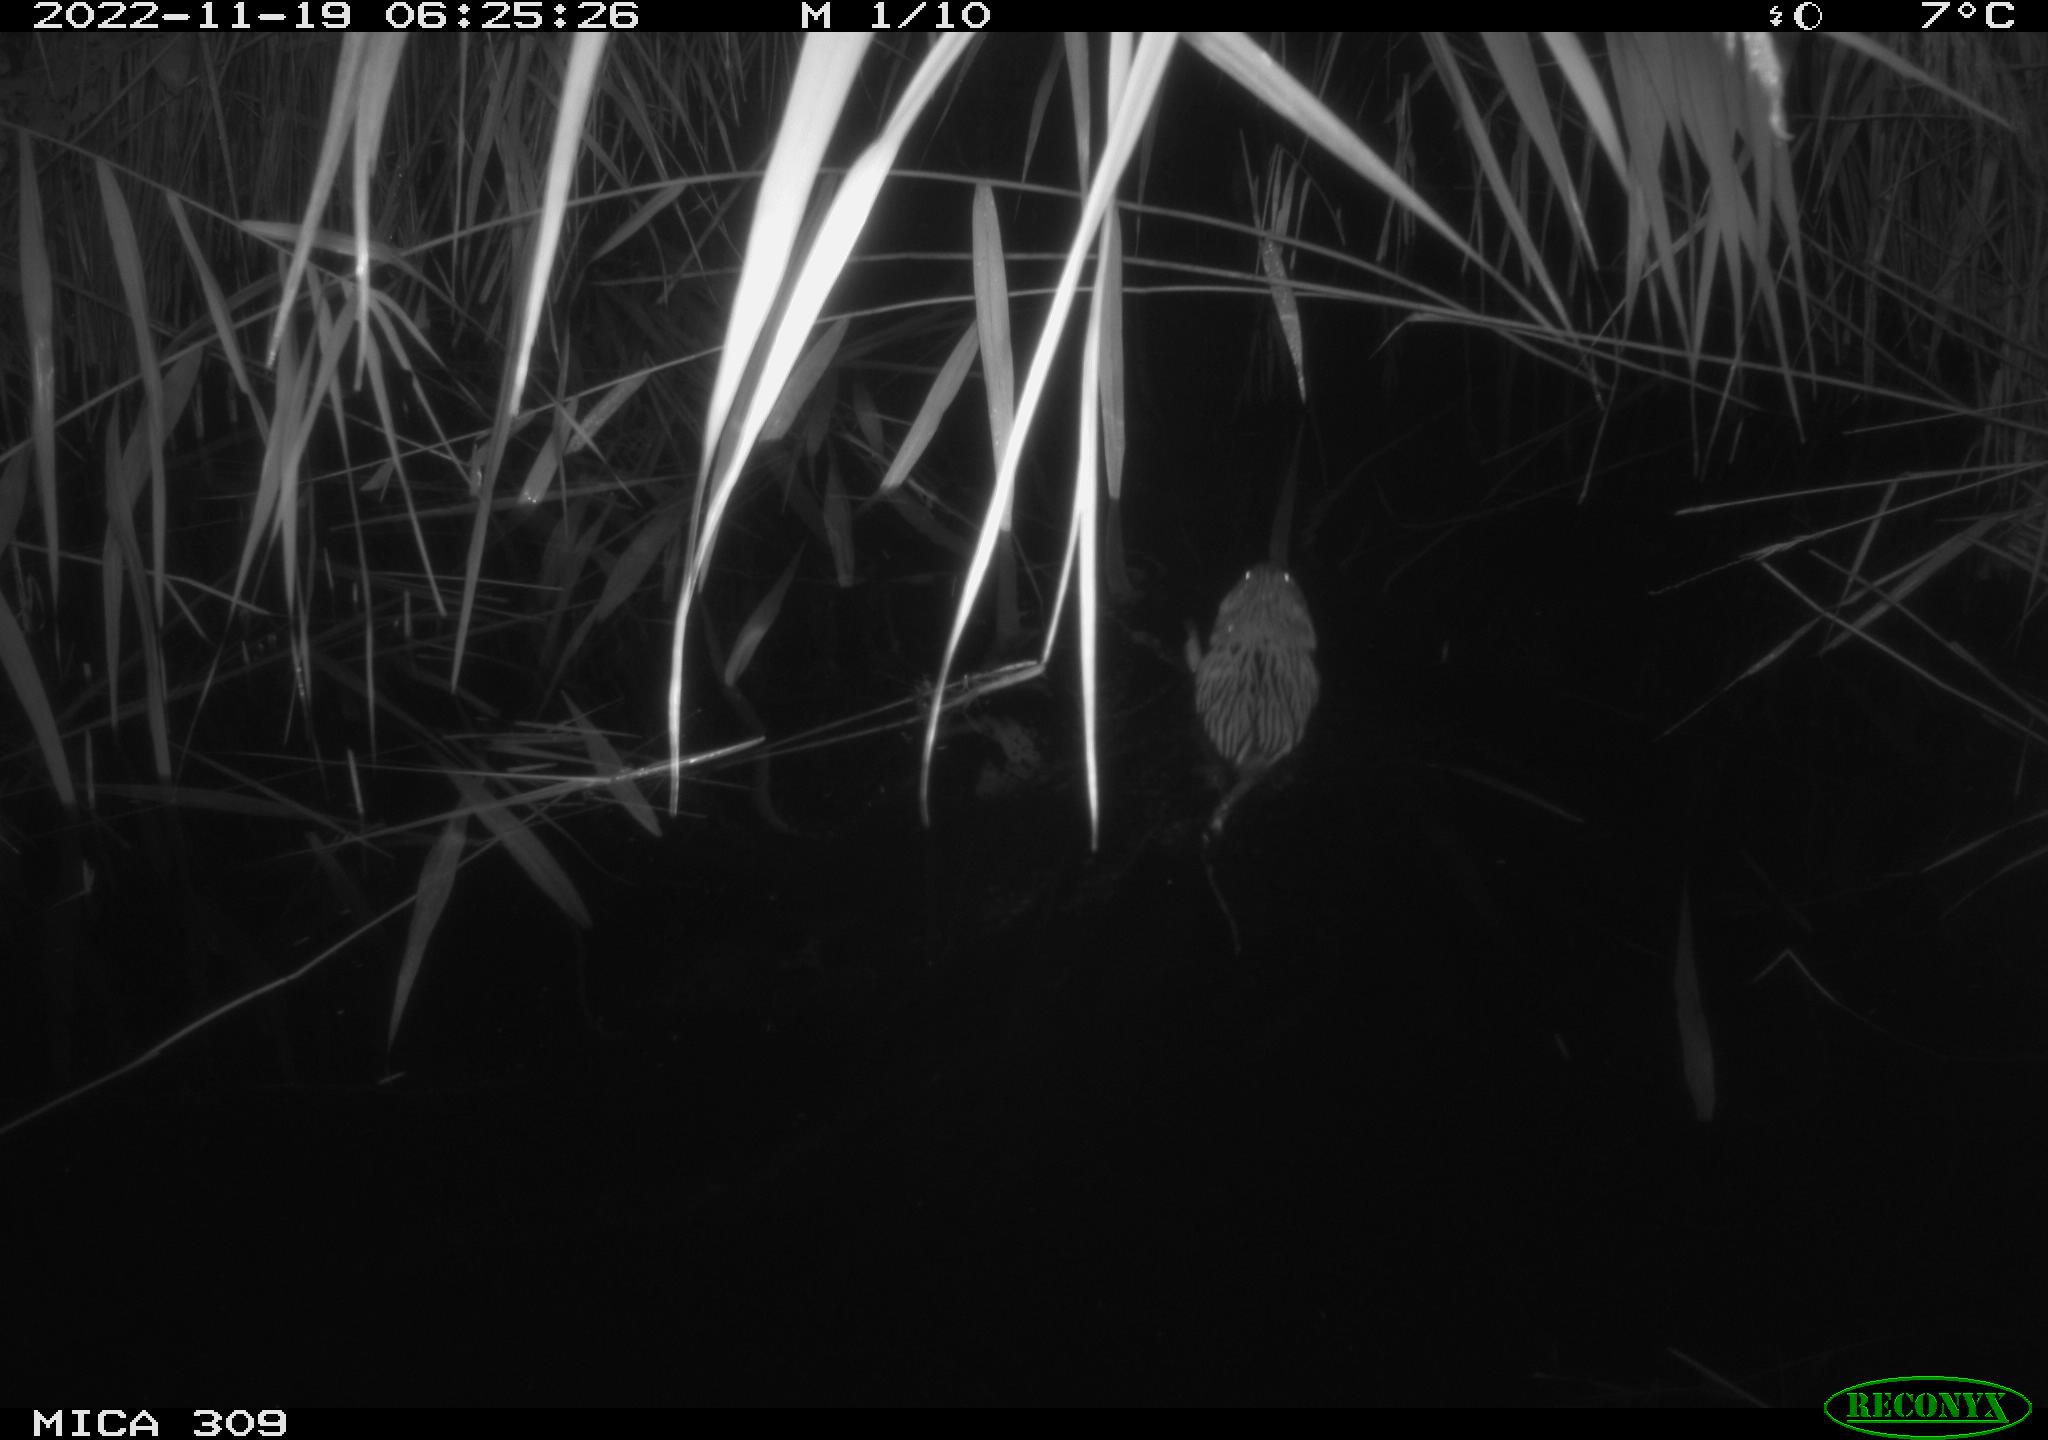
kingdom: Animalia
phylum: Chordata
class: Mammalia
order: Rodentia
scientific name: Rodentia
